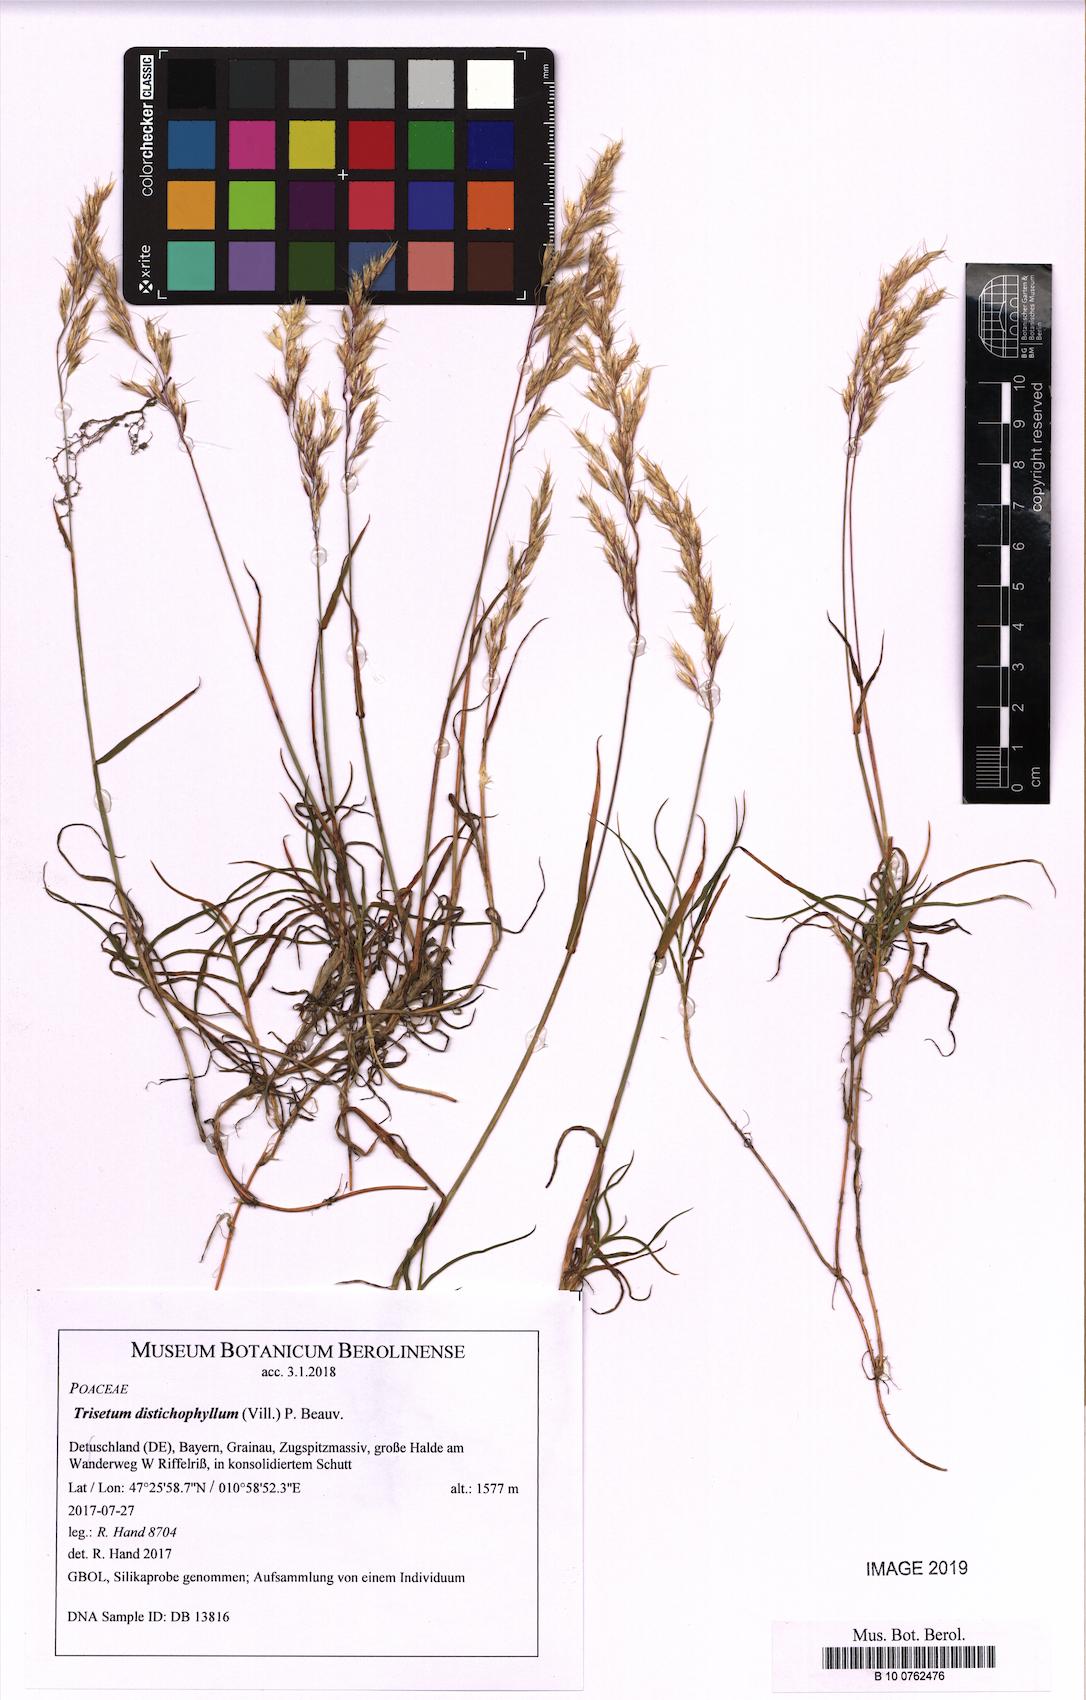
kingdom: Plantae
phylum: Tracheophyta
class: Liliopsida
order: Poales
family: Poaceae
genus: Acrospelion
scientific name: Acrospelion distichophyllum
